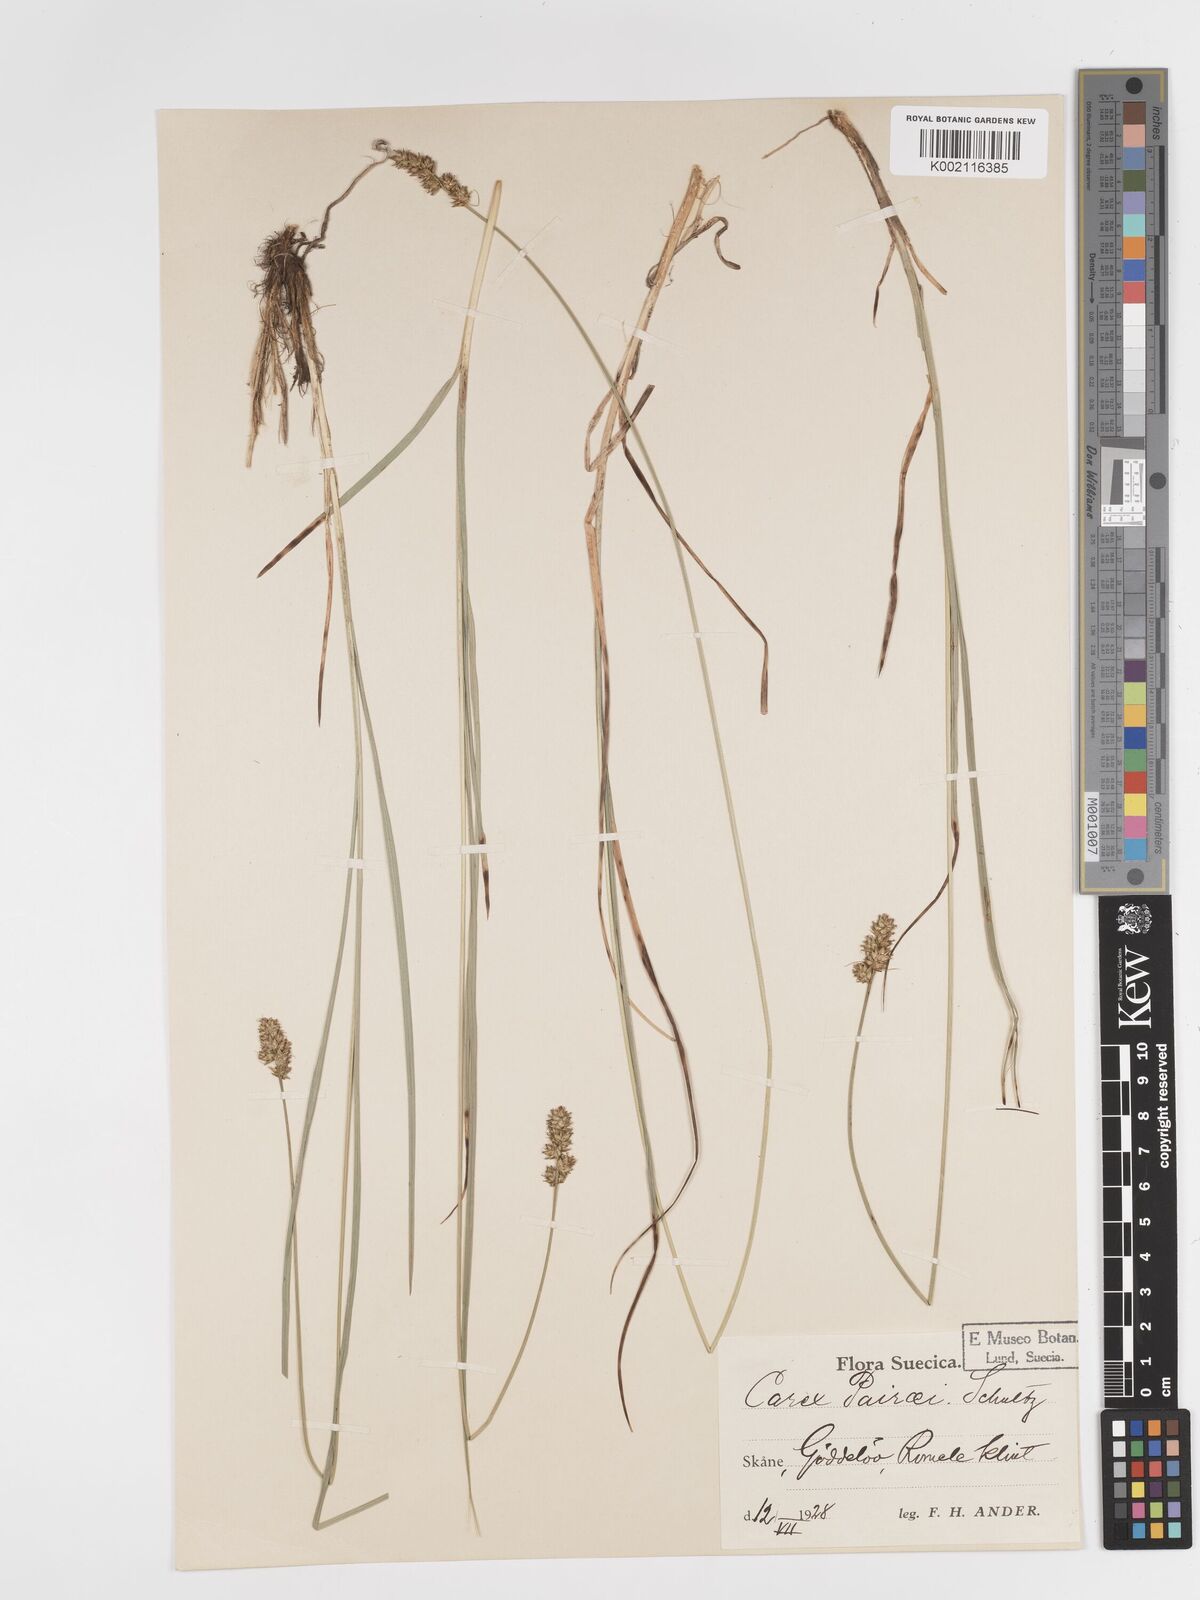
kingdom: Plantae
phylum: Tracheophyta
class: Liliopsida
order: Poales
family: Cyperaceae
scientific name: Cyperaceae
